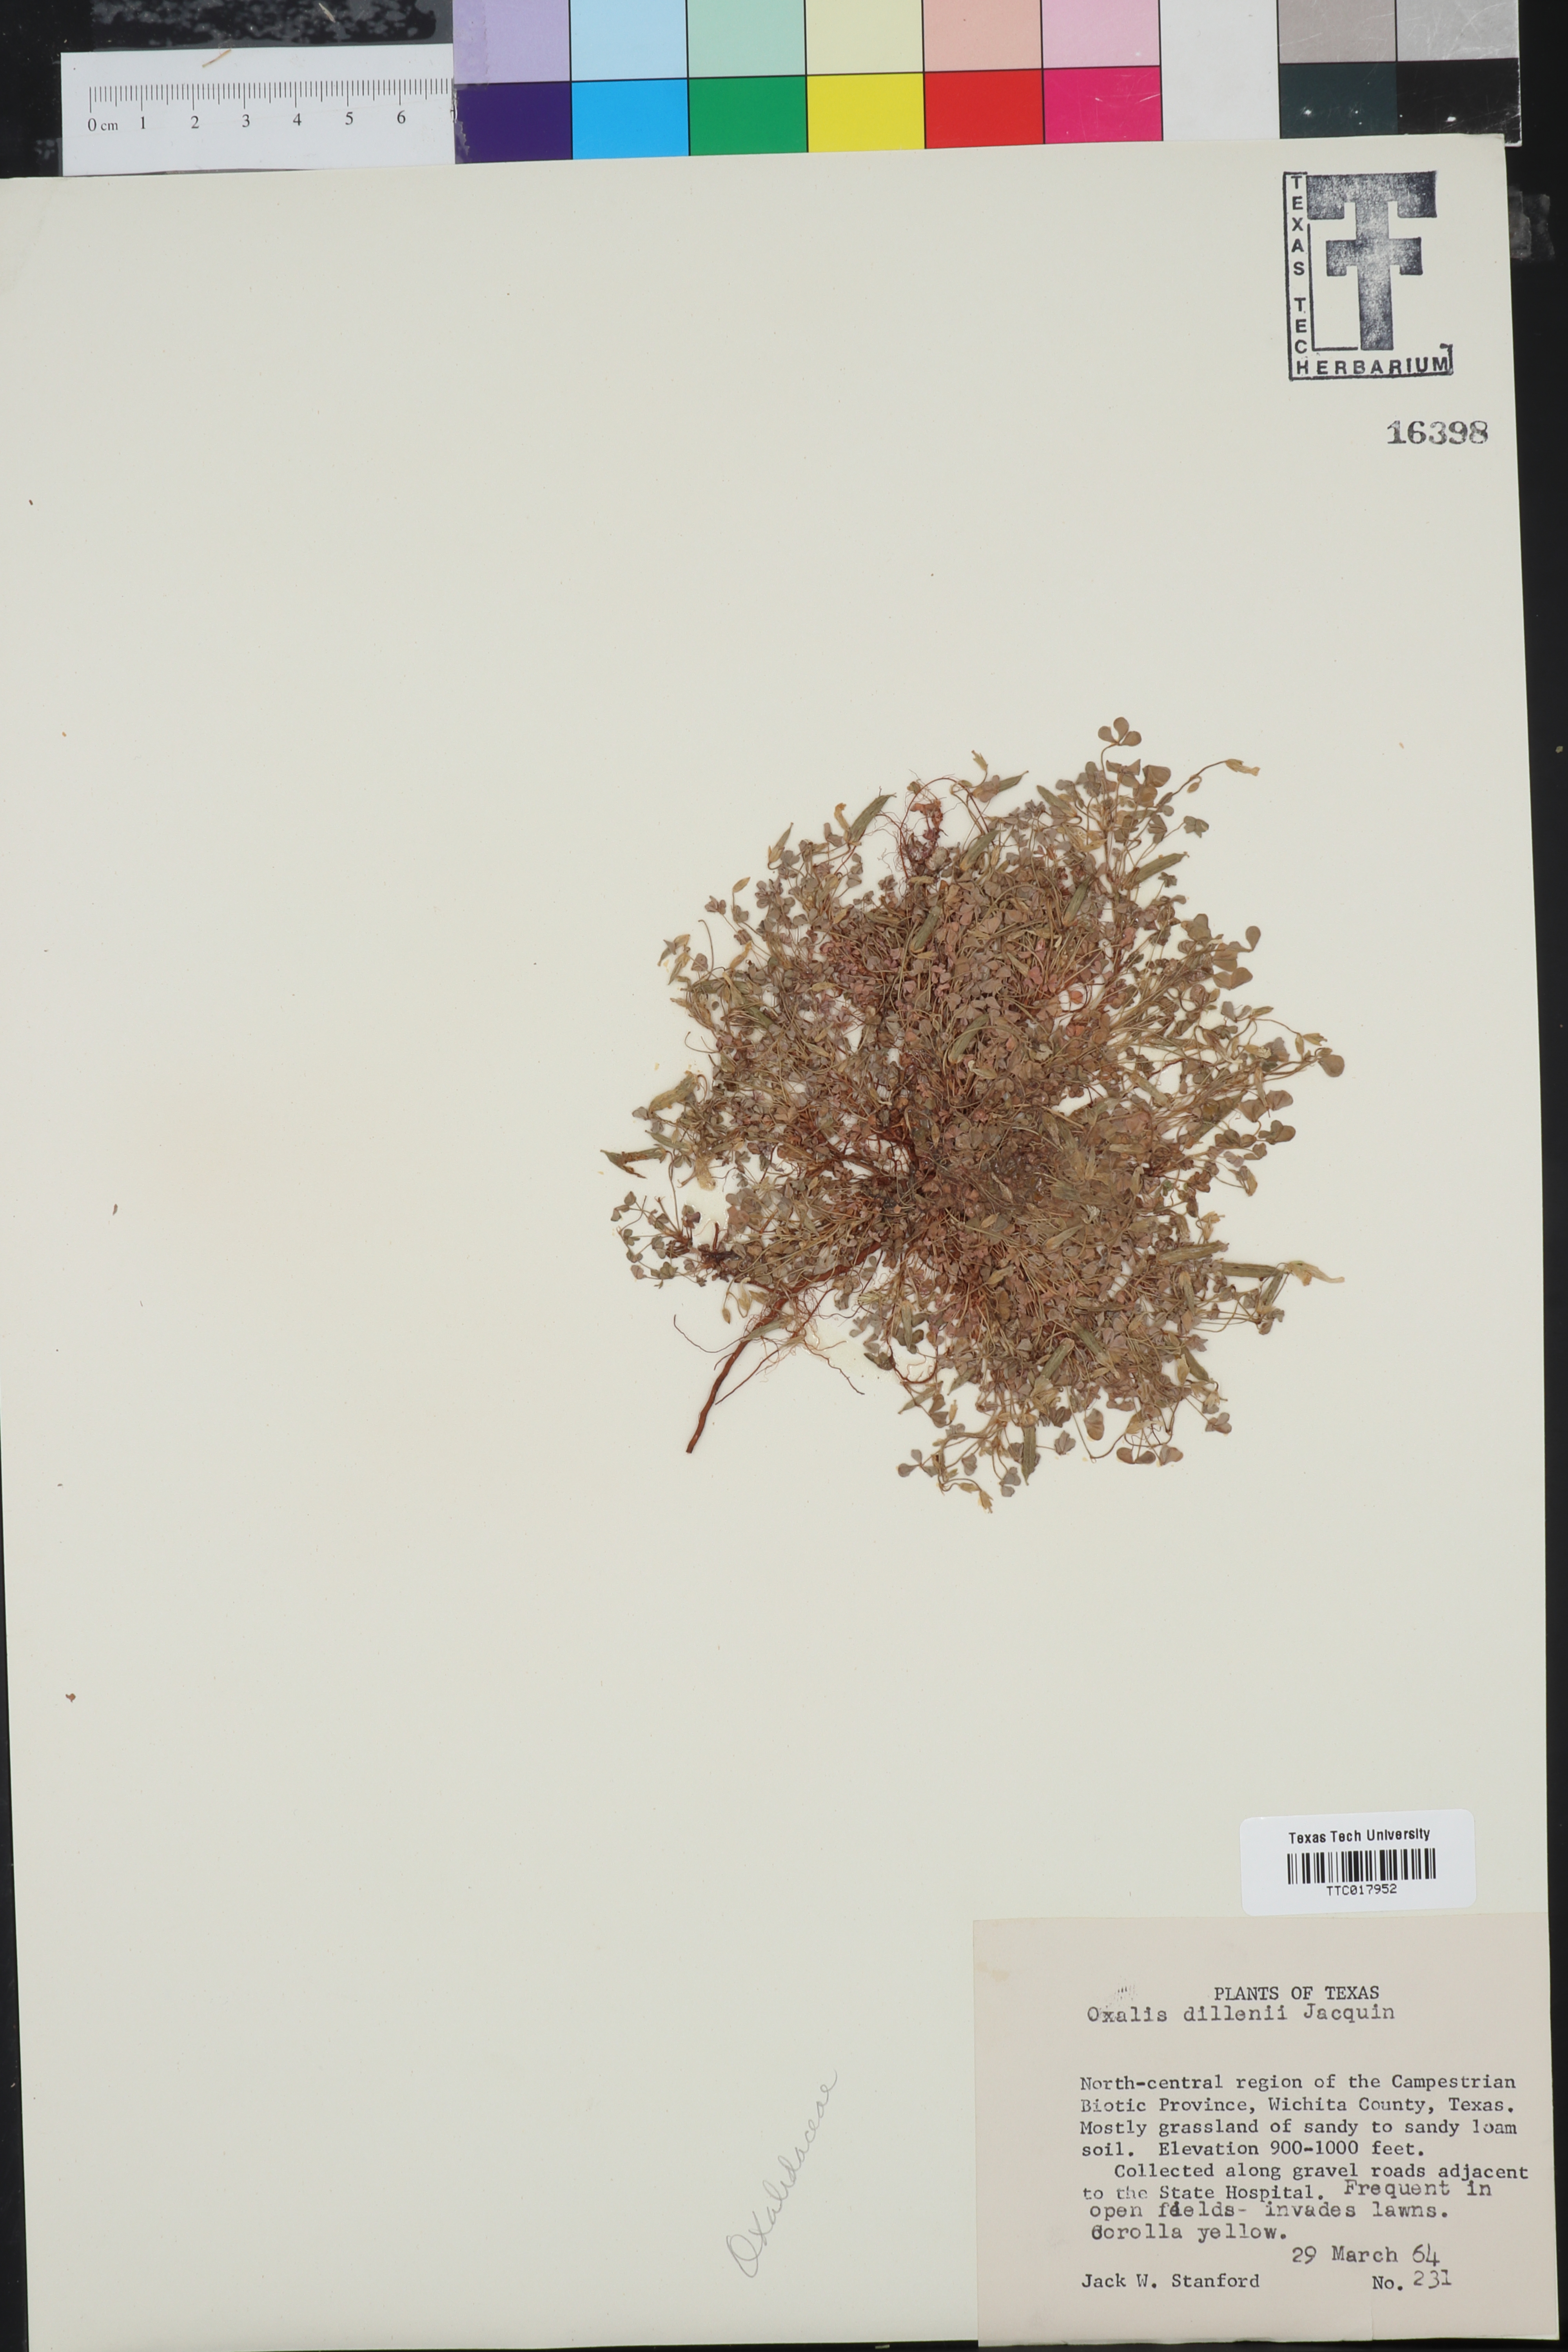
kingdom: Plantae
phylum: Tracheophyta
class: Magnoliopsida
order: Oxalidales
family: Oxalidaceae
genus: Oxalis
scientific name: Oxalis dillenii
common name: Sussex yellow-sorrel
